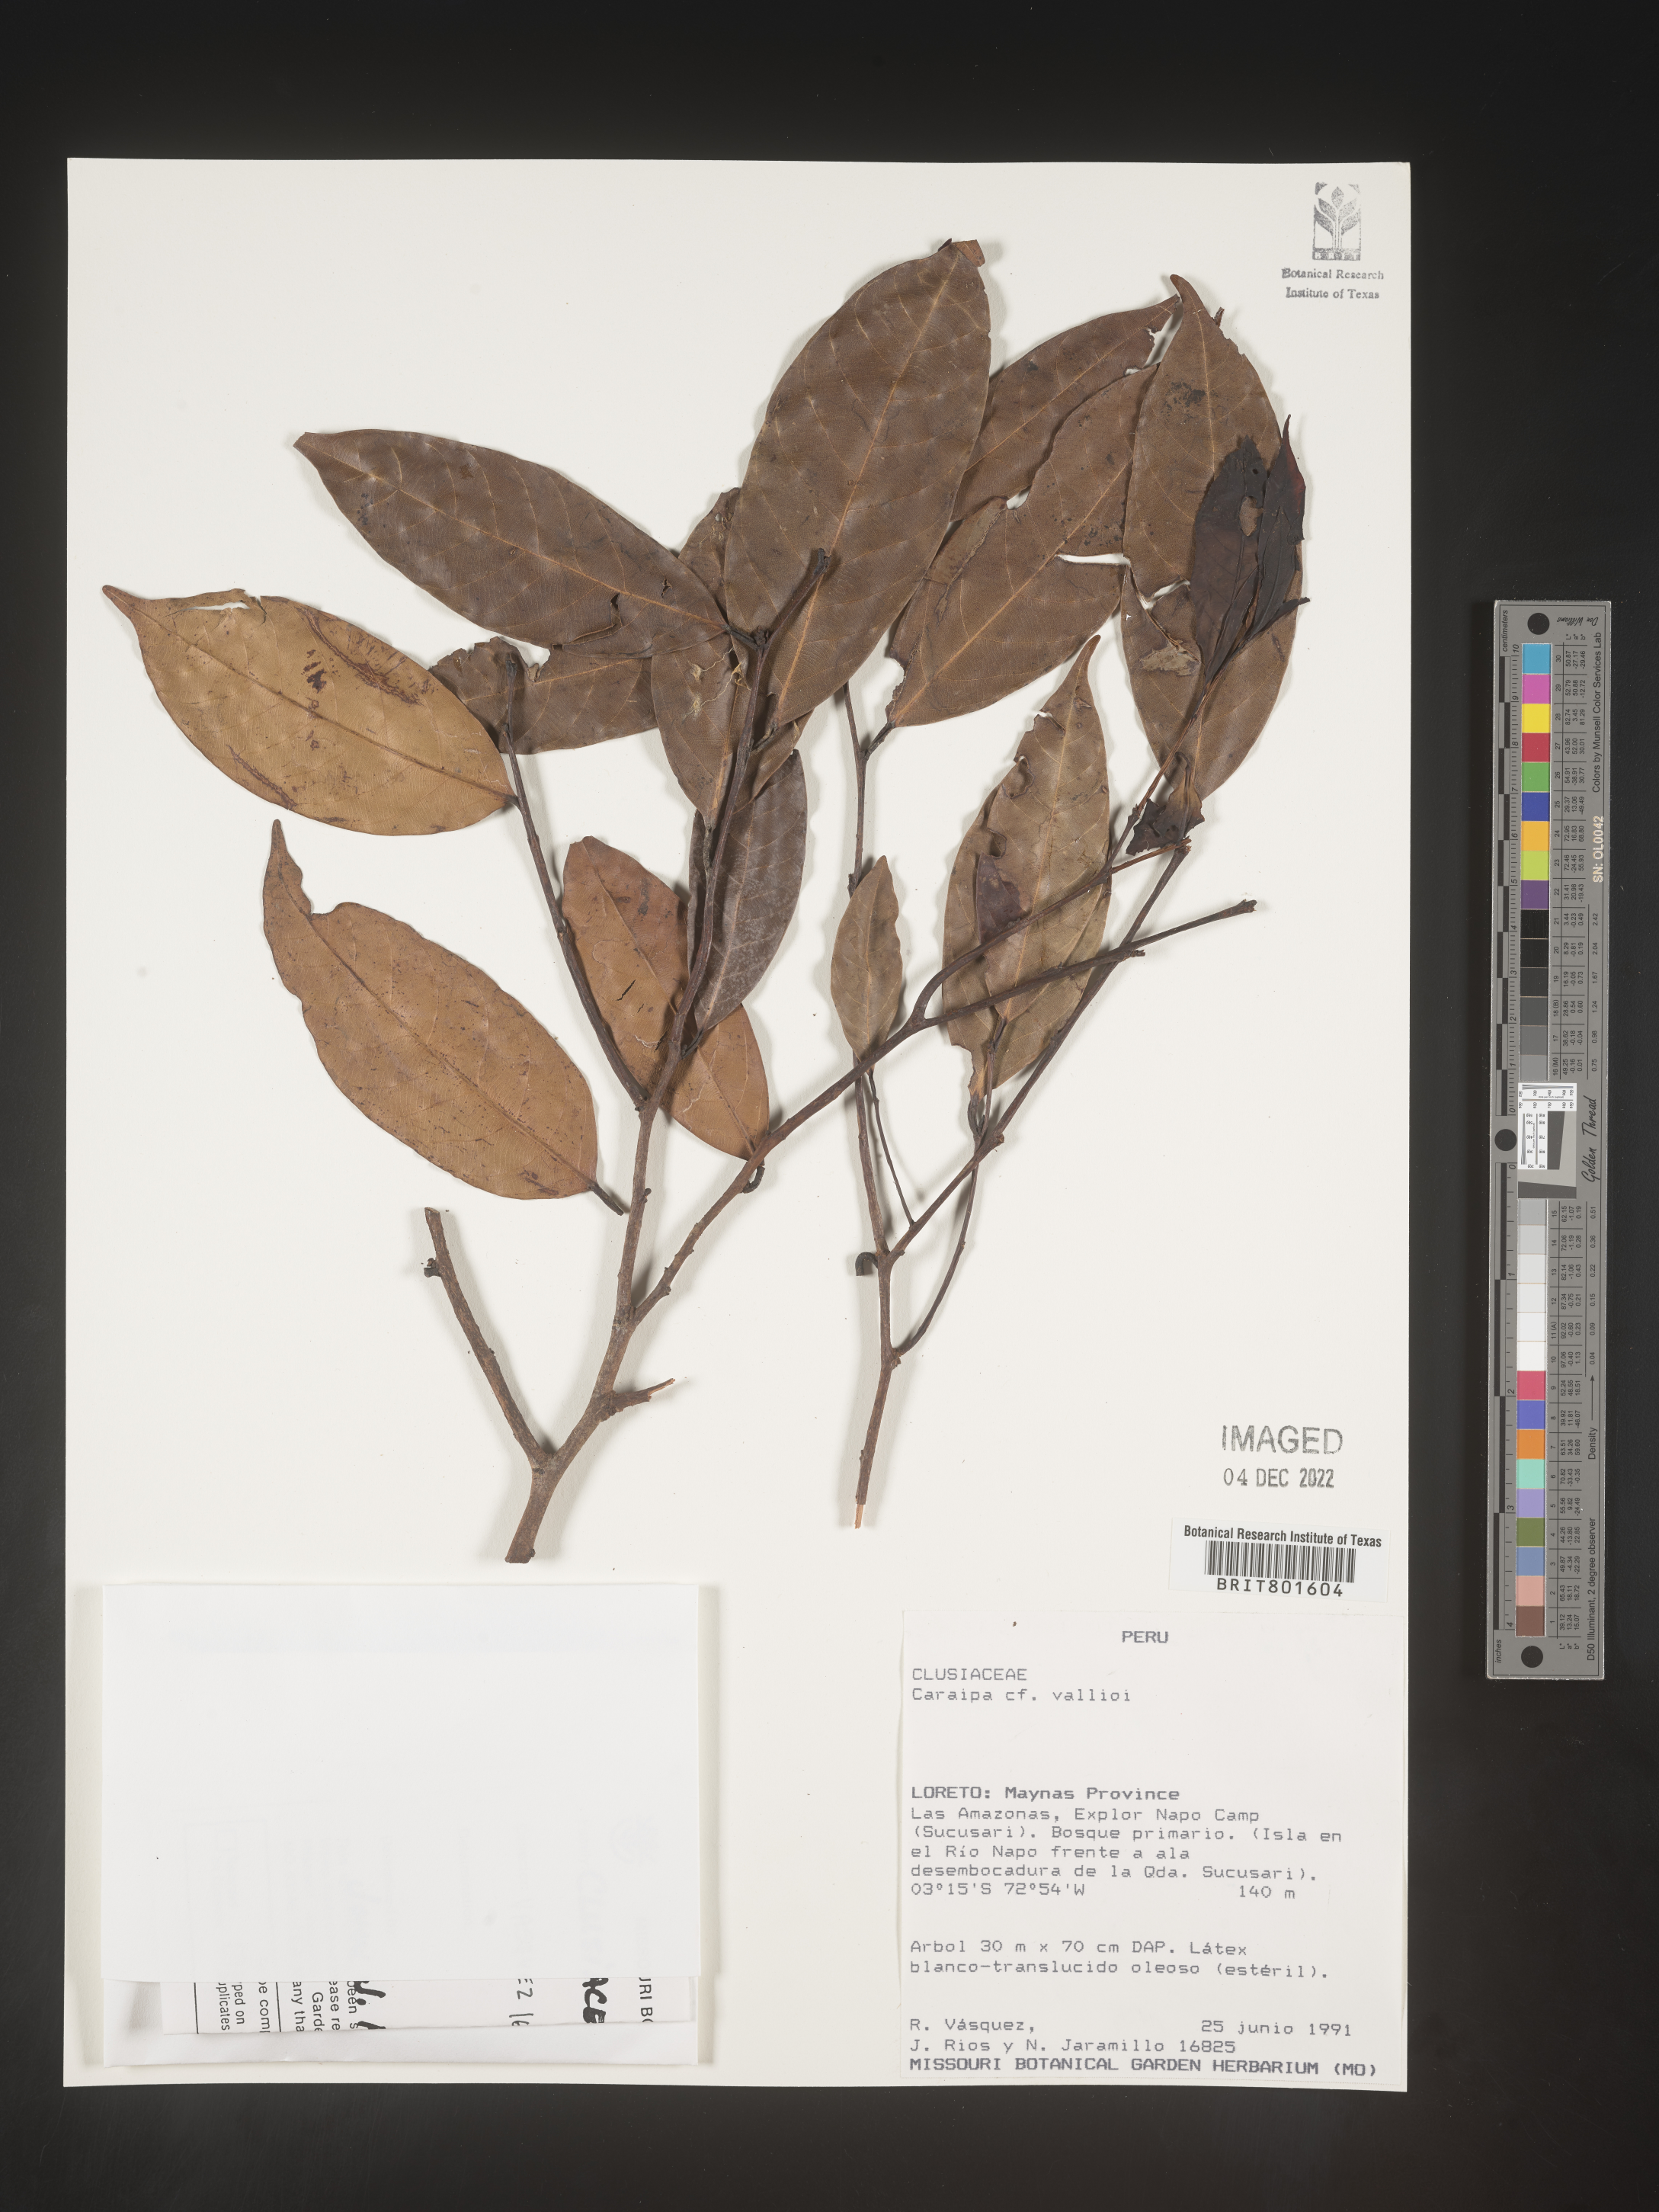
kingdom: Plantae
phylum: Tracheophyta
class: Magnoliopsida
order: Malpighiales
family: Calophyllaceae
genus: Caraipa
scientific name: Caraipa valioi
